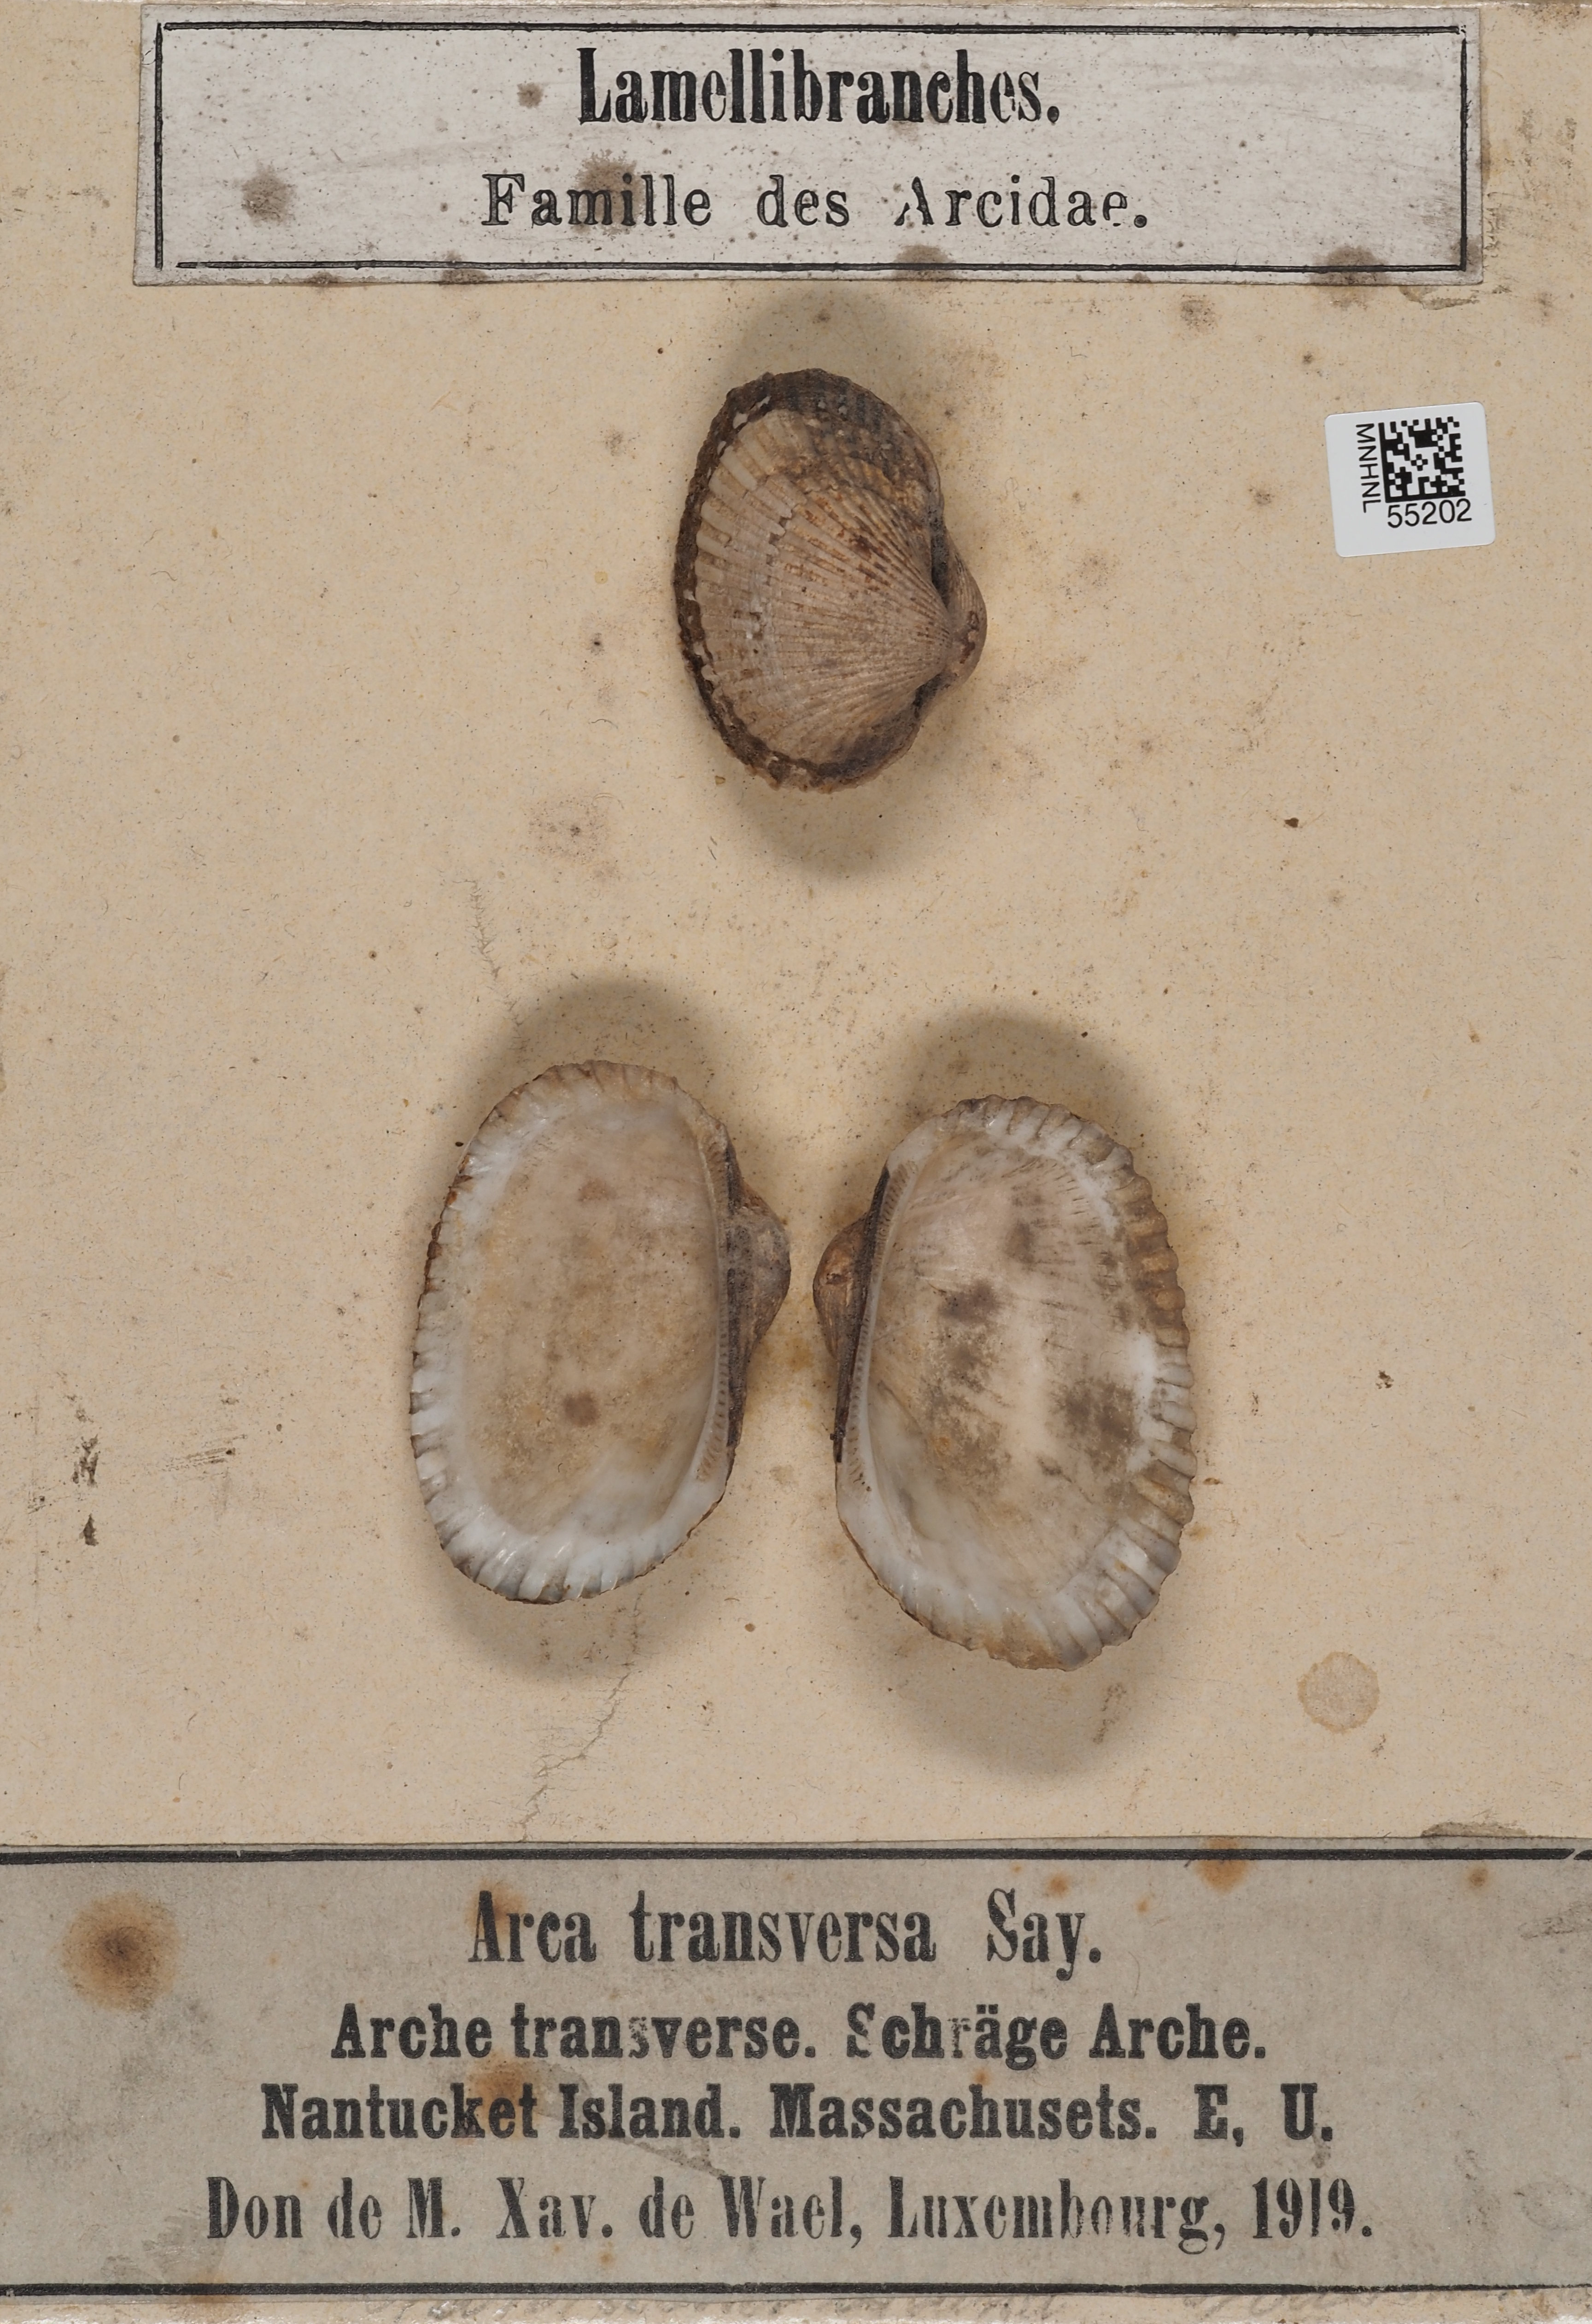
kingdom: Animalia
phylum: Mollusca
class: Bivalvia
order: Arcida
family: Arcidae
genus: Arca
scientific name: Arca
